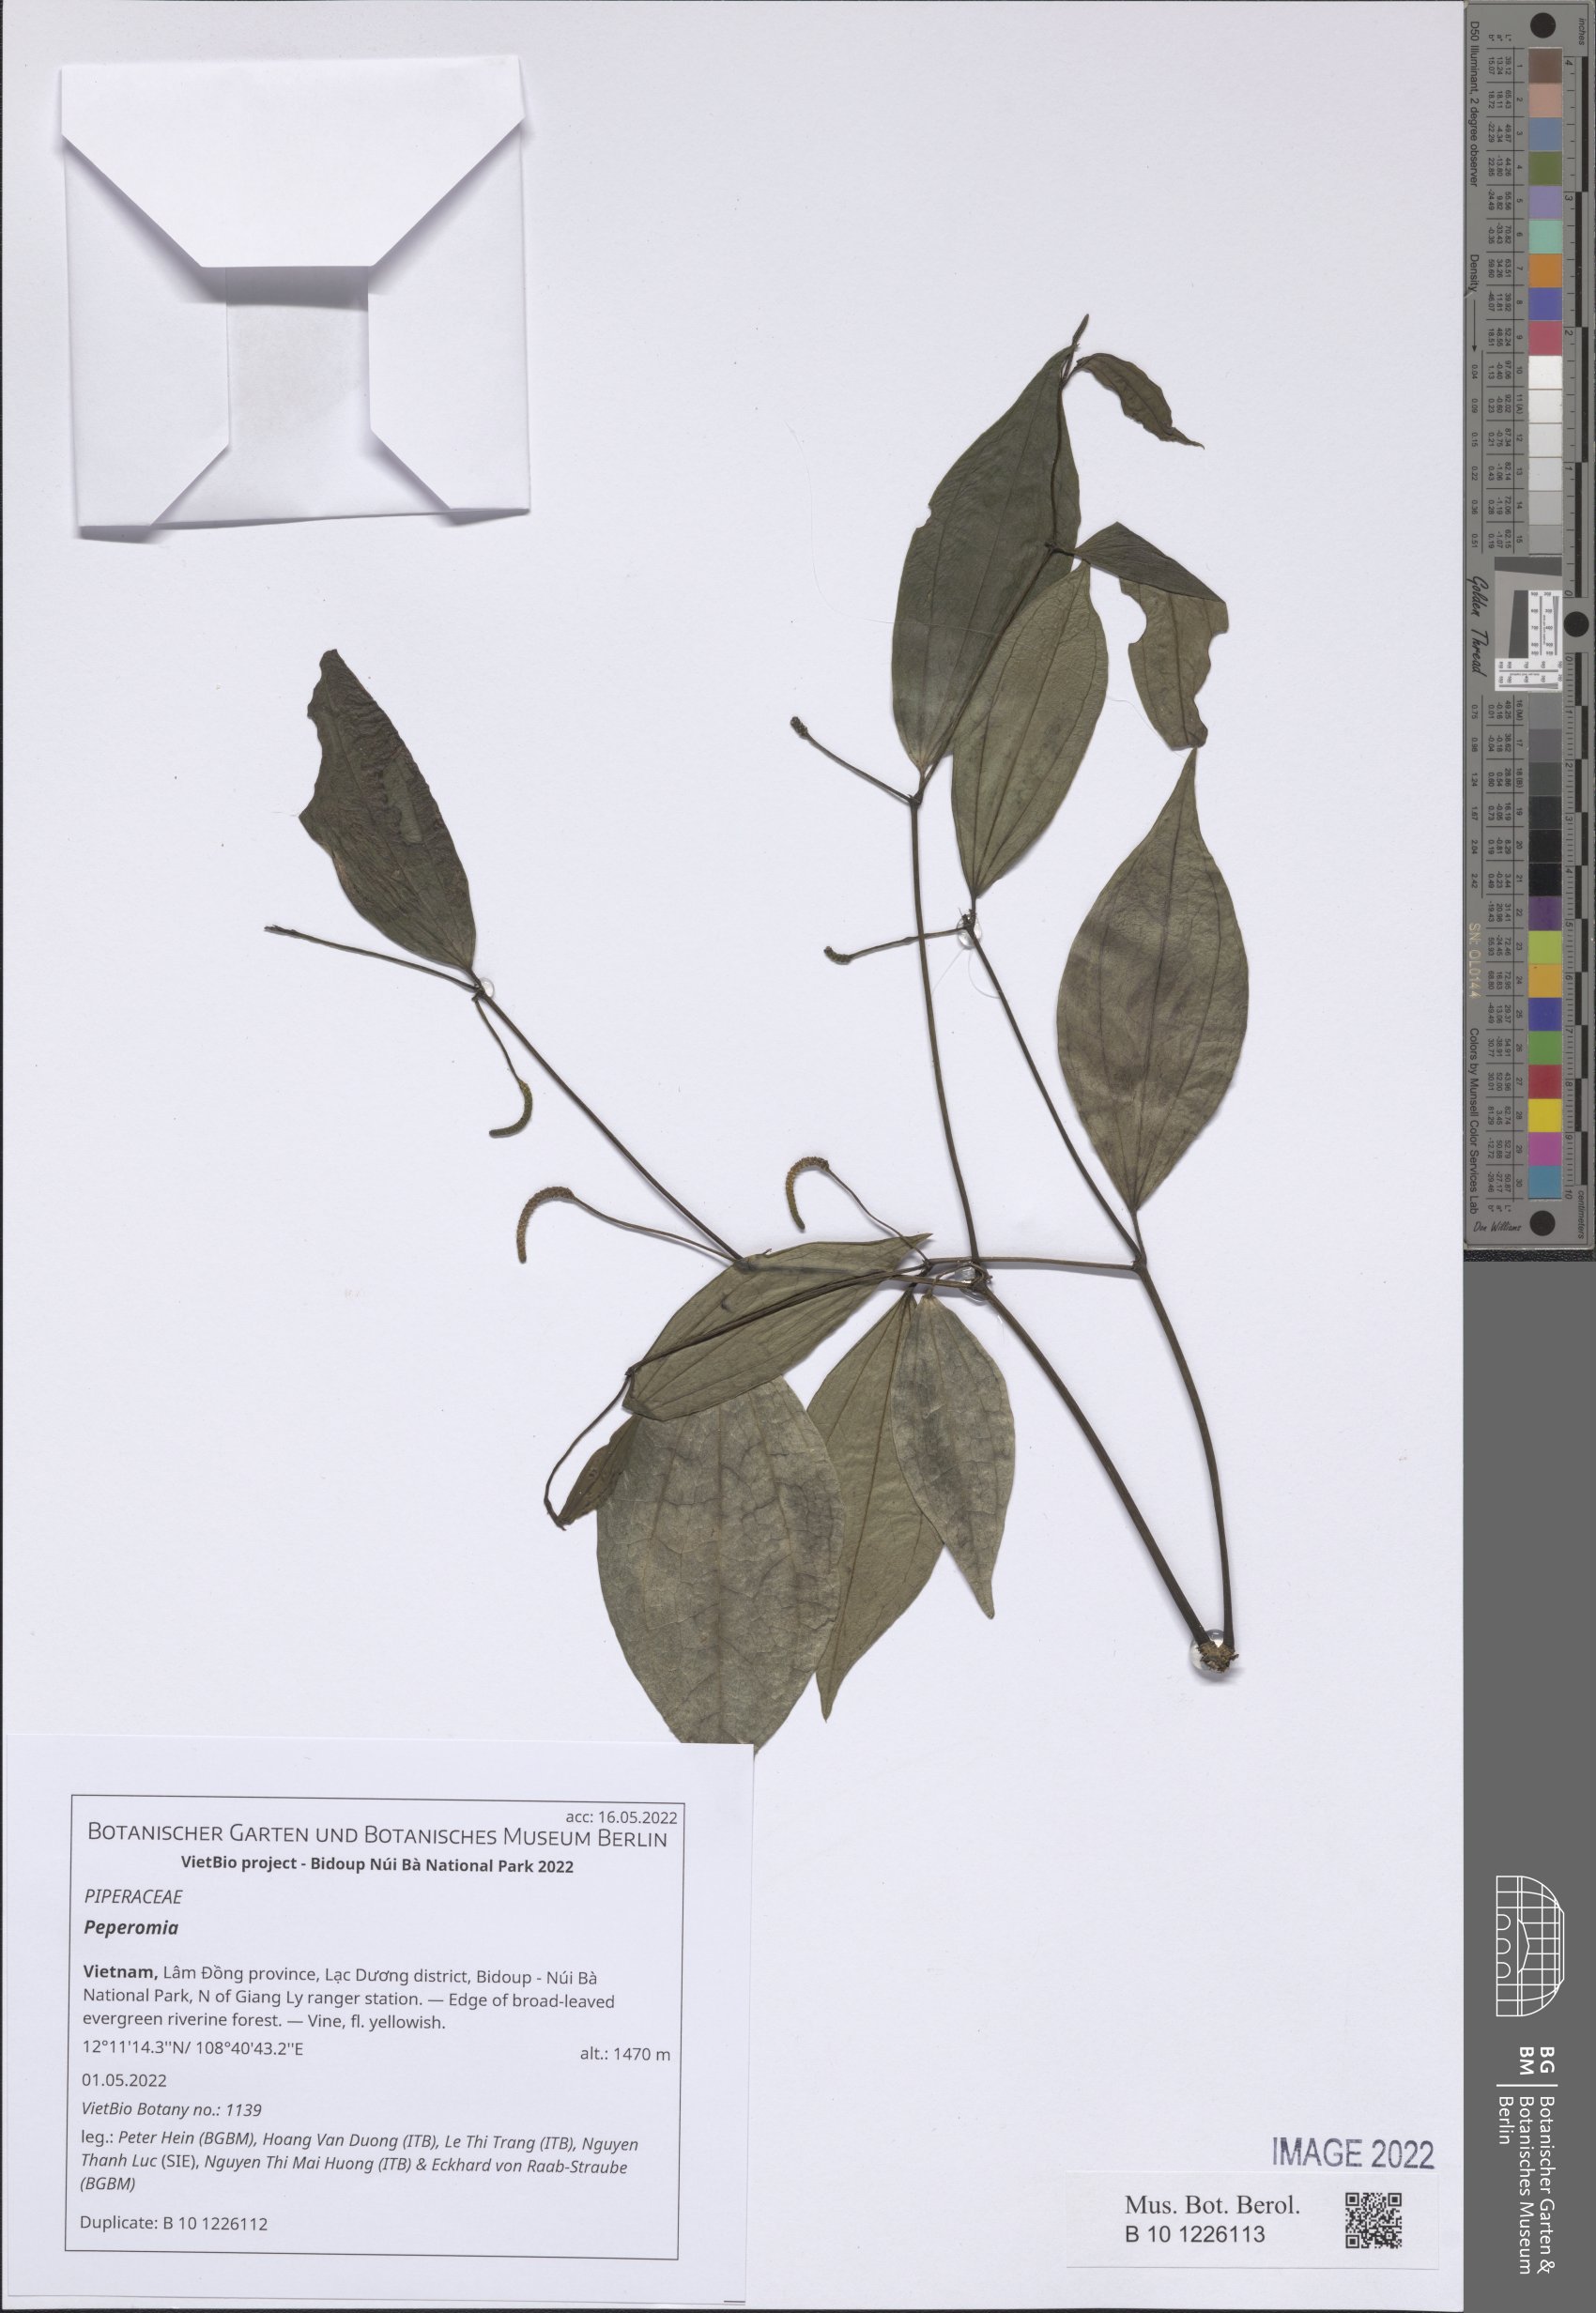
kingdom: Plantae
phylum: Tracheophyta
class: Magnoliopsida
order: Piperales
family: Piperaceae
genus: Peperomia
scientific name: Peperomia
